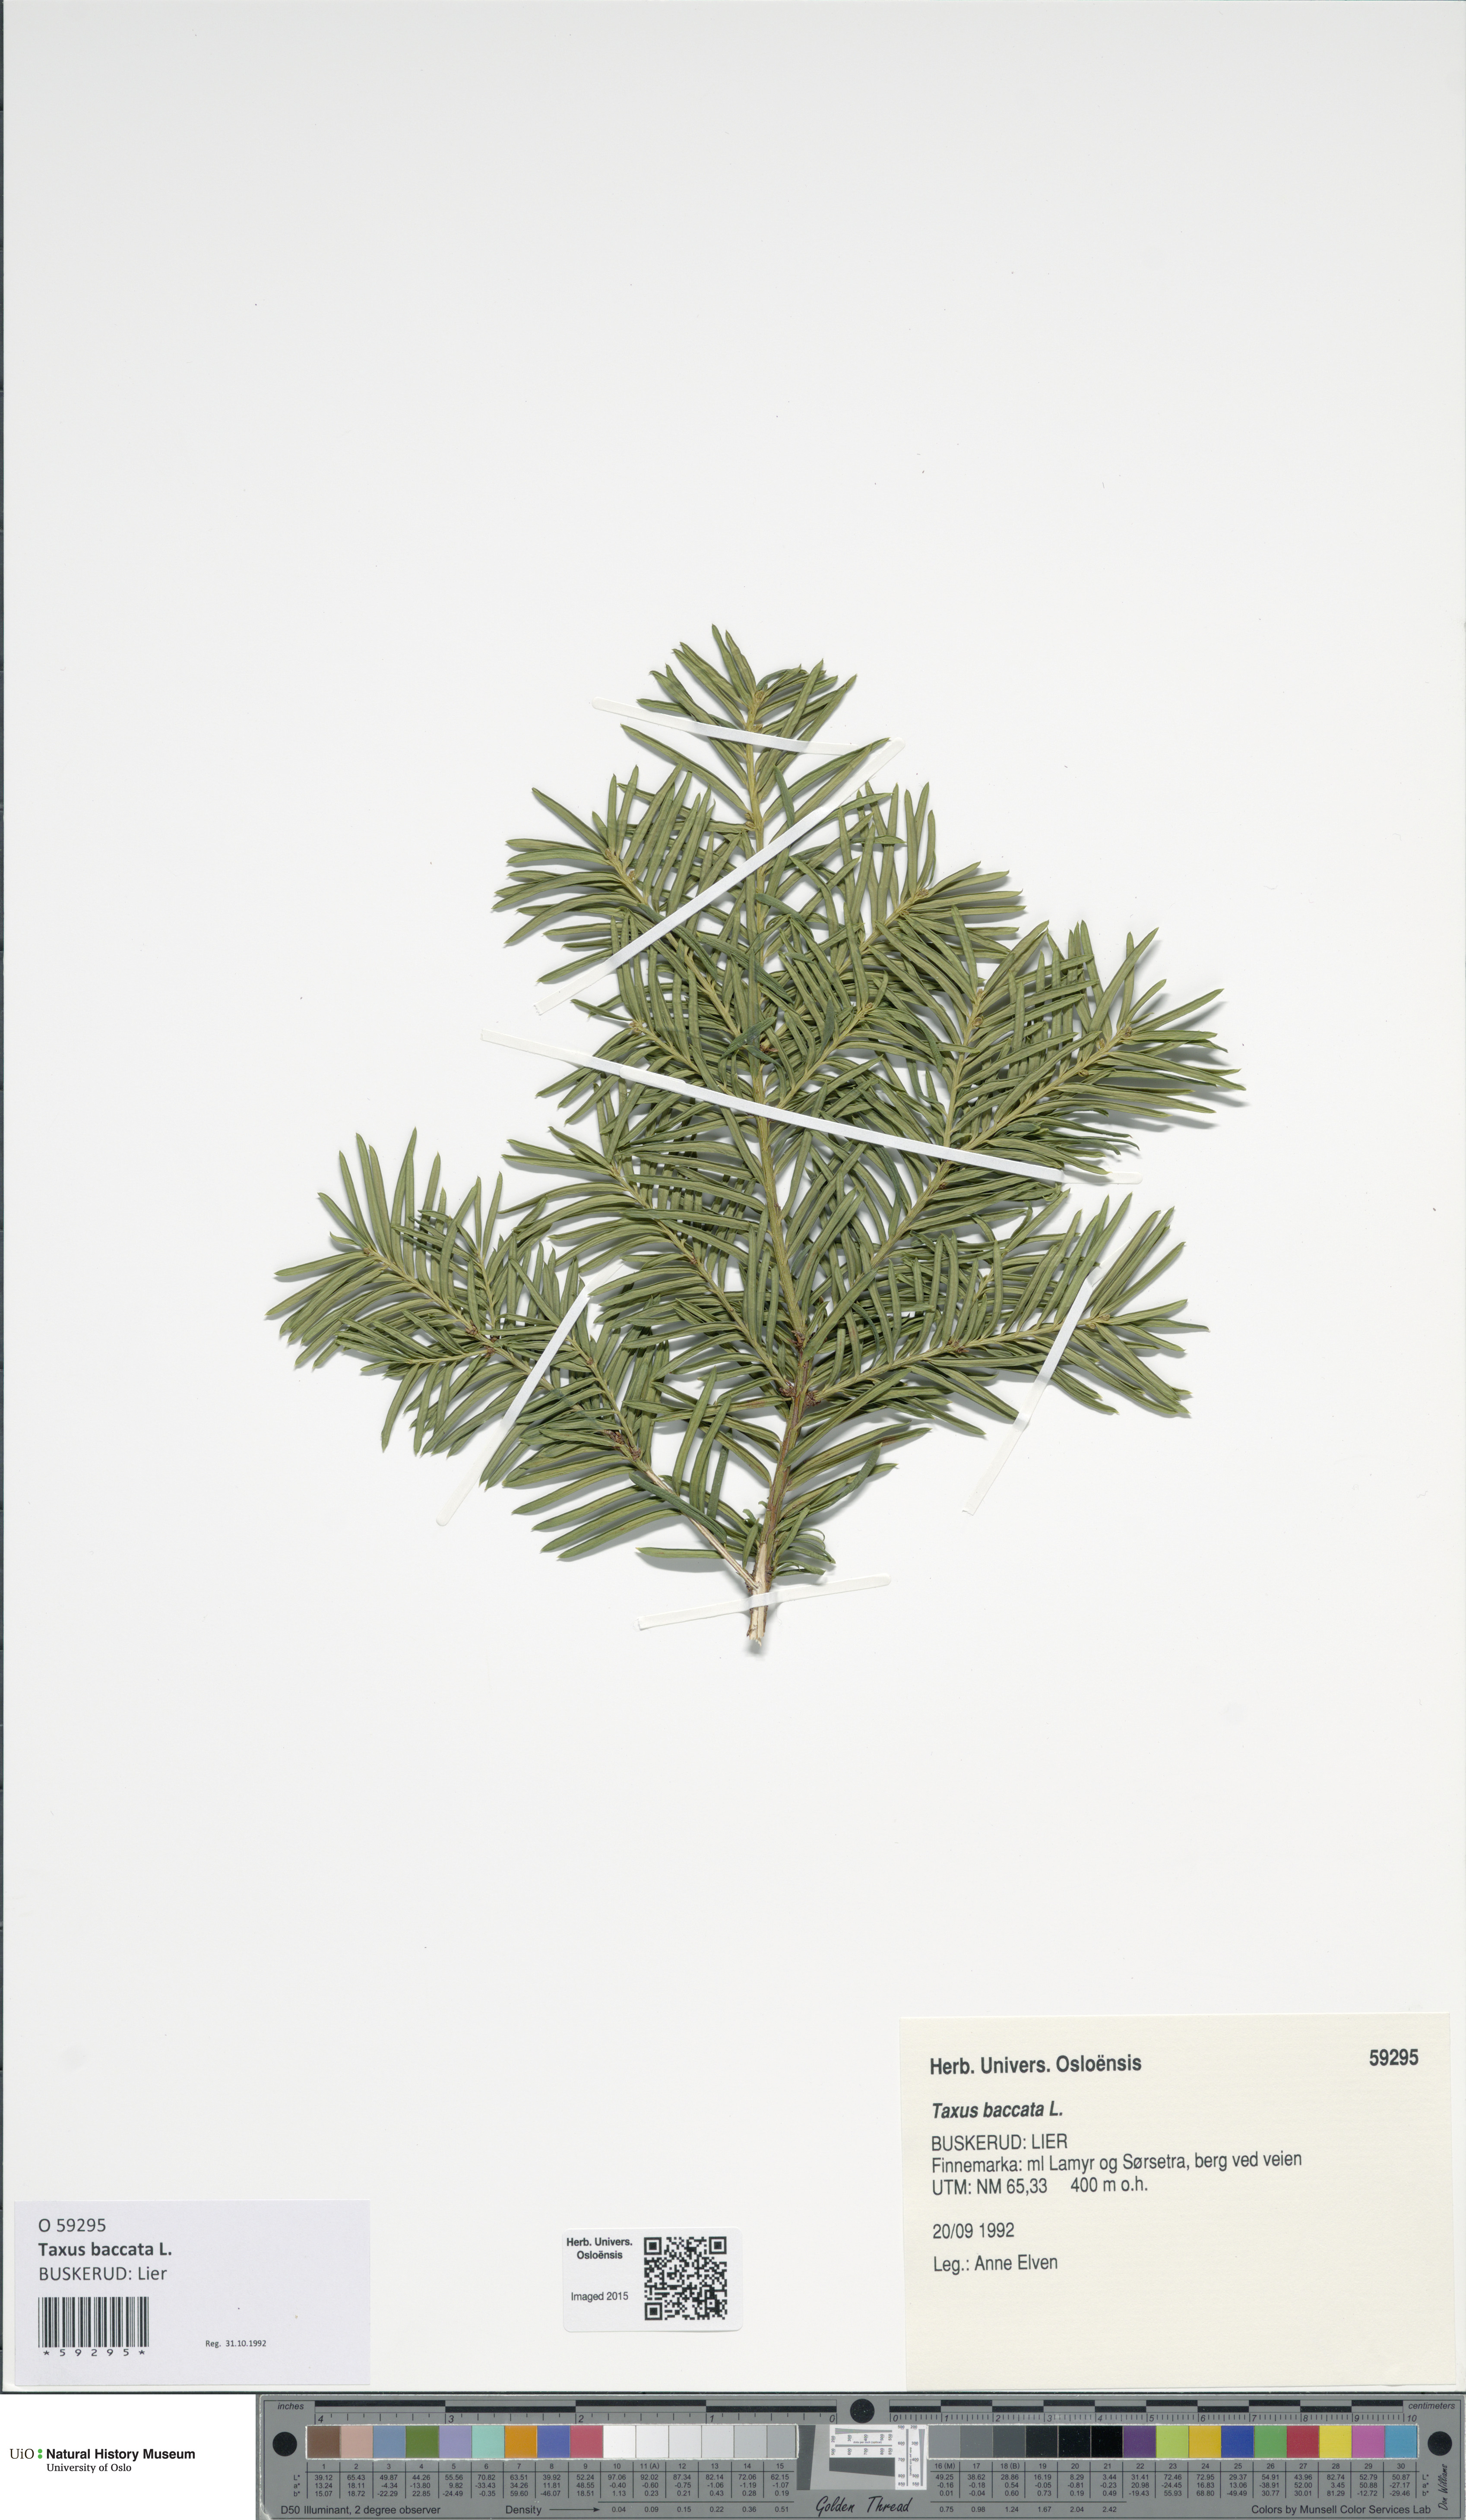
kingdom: Plantae
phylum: Tracheophyta
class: Pinopsida
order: Pinales
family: Taxaceae
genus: Taxus
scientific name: Taxus baccata
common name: Yew
